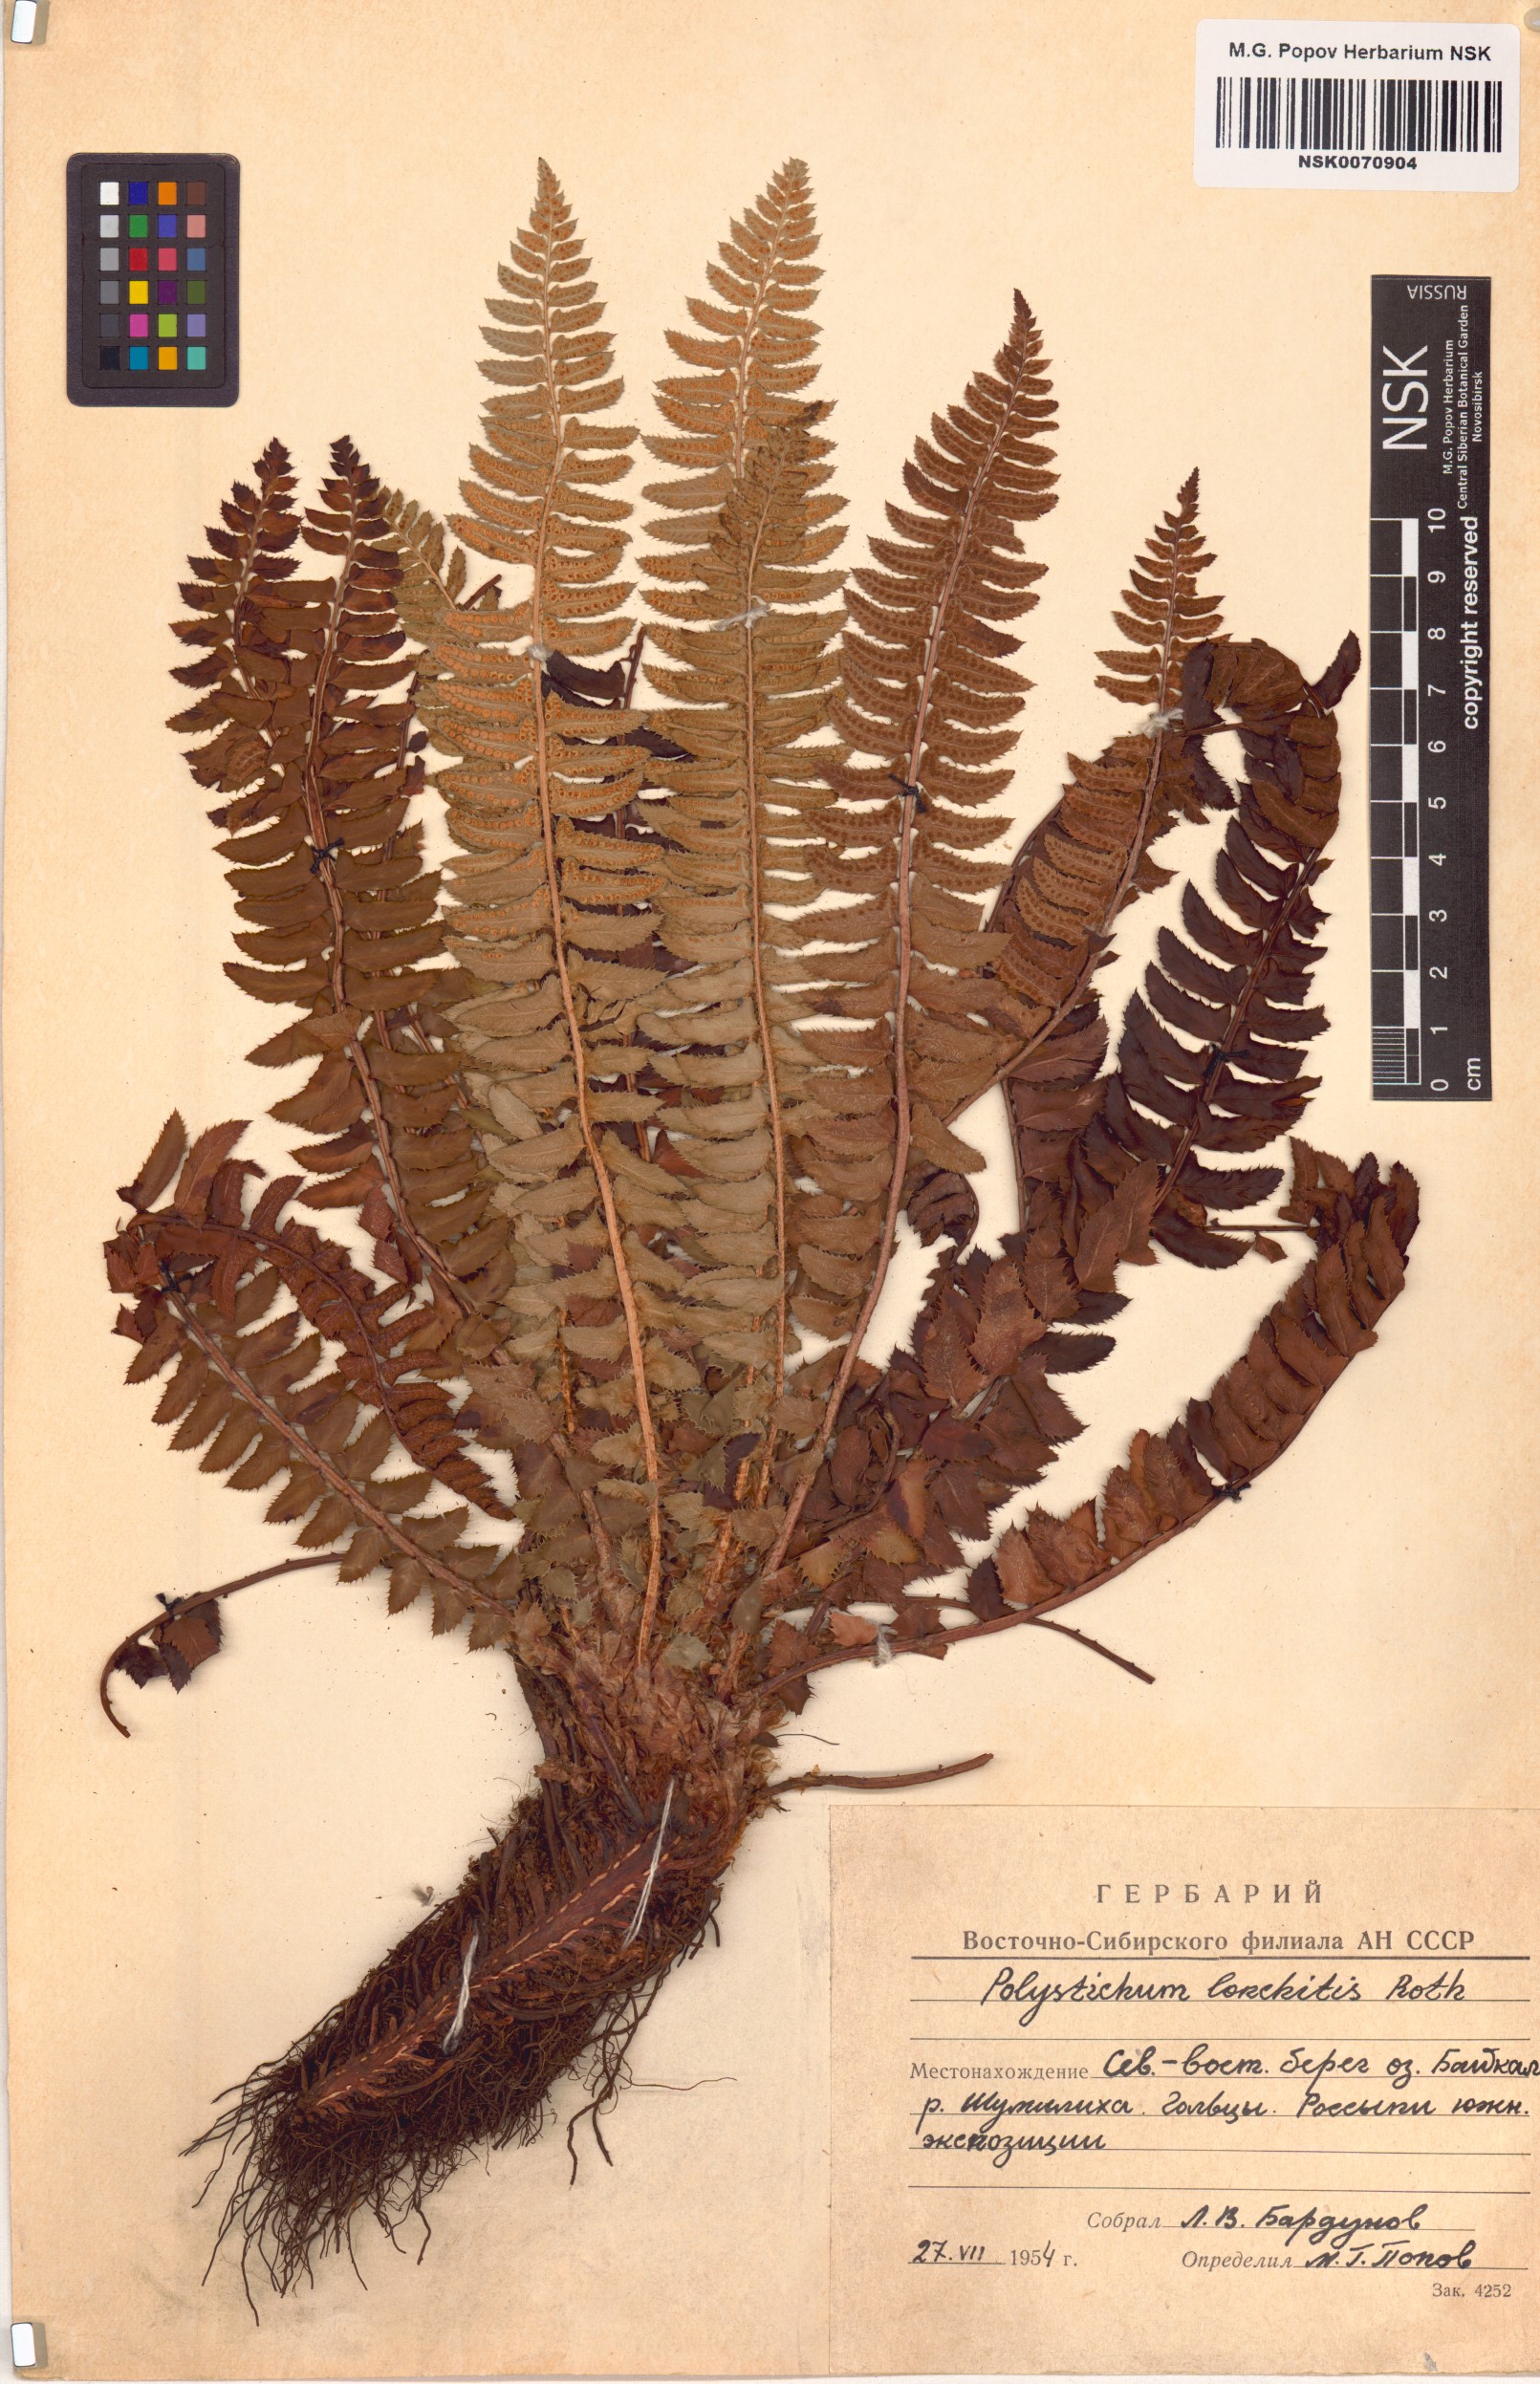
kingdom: Plantae
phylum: Tracheophyta
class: Polypodiopsida
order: Polypodiales
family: Dryopteridaceae
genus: Polystichum
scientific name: Polystichum lonchitis
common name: Holly fern
